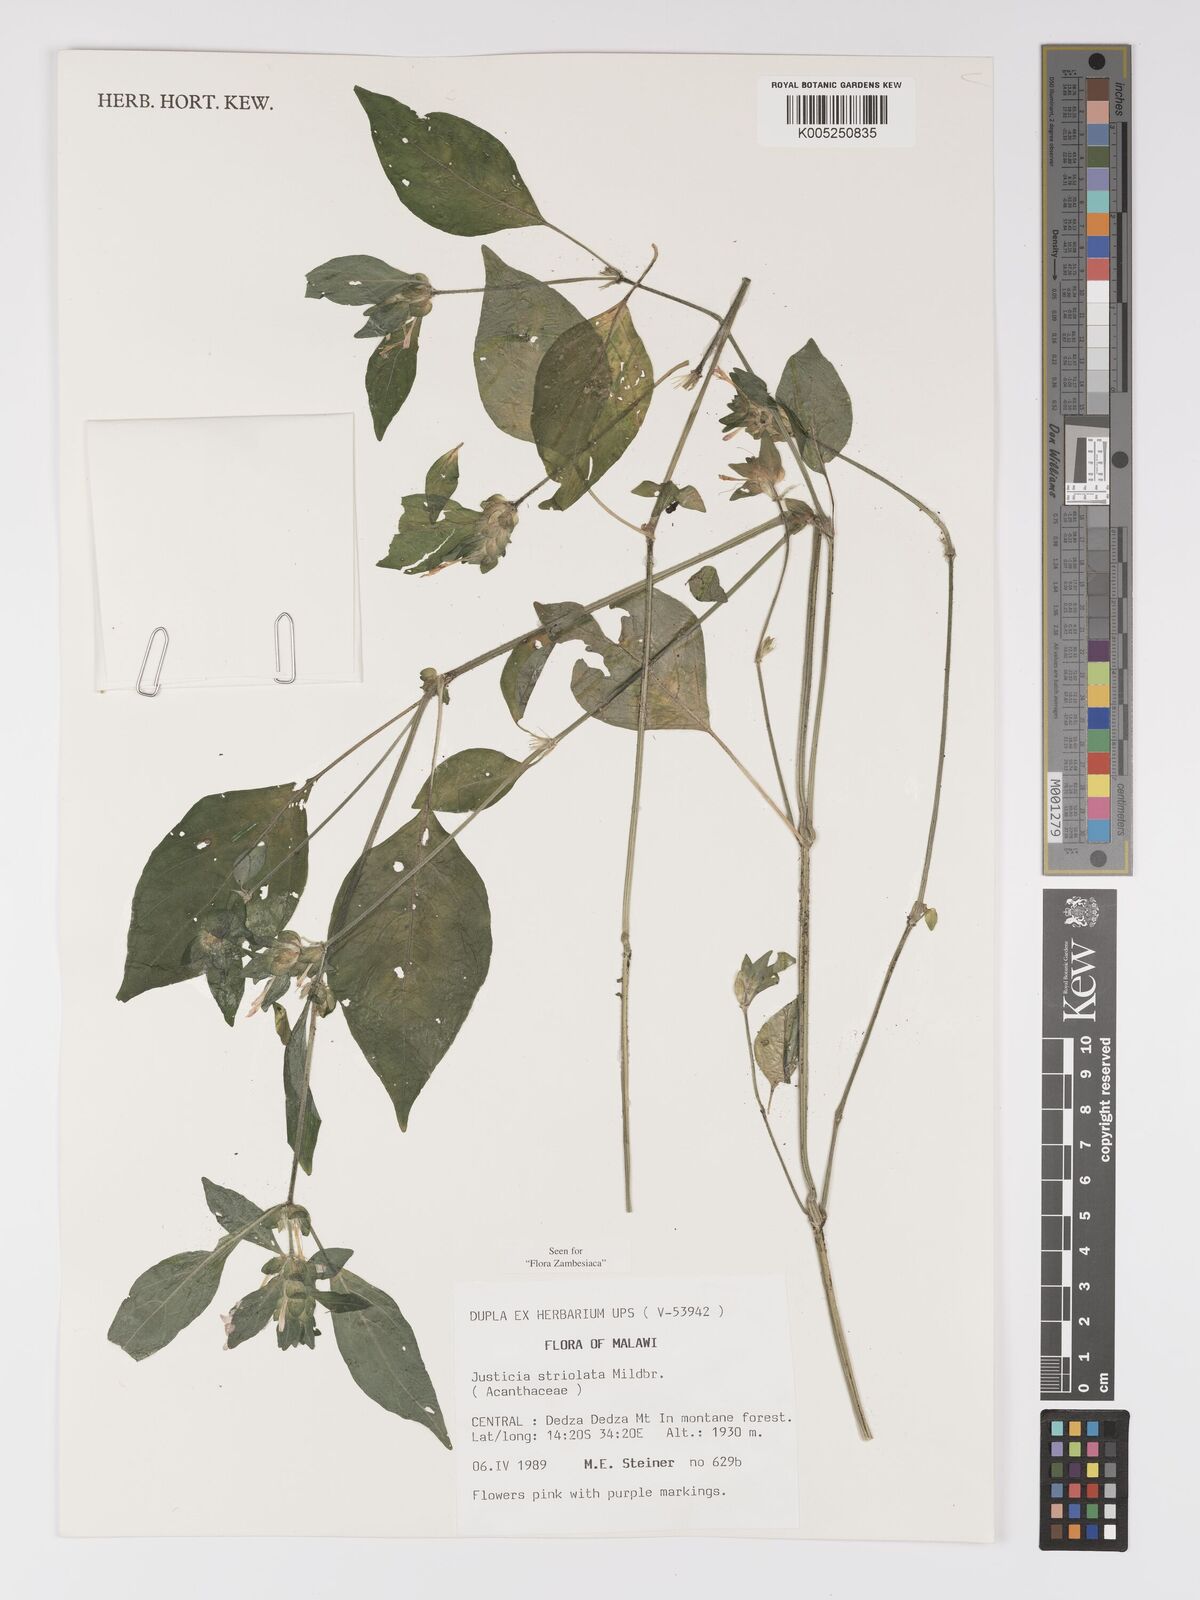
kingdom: Plantae
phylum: Tracheophyta
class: Magnoliopsida
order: Lamiales
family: Acanthaceae
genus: Justicia
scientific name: Justicia striolata
